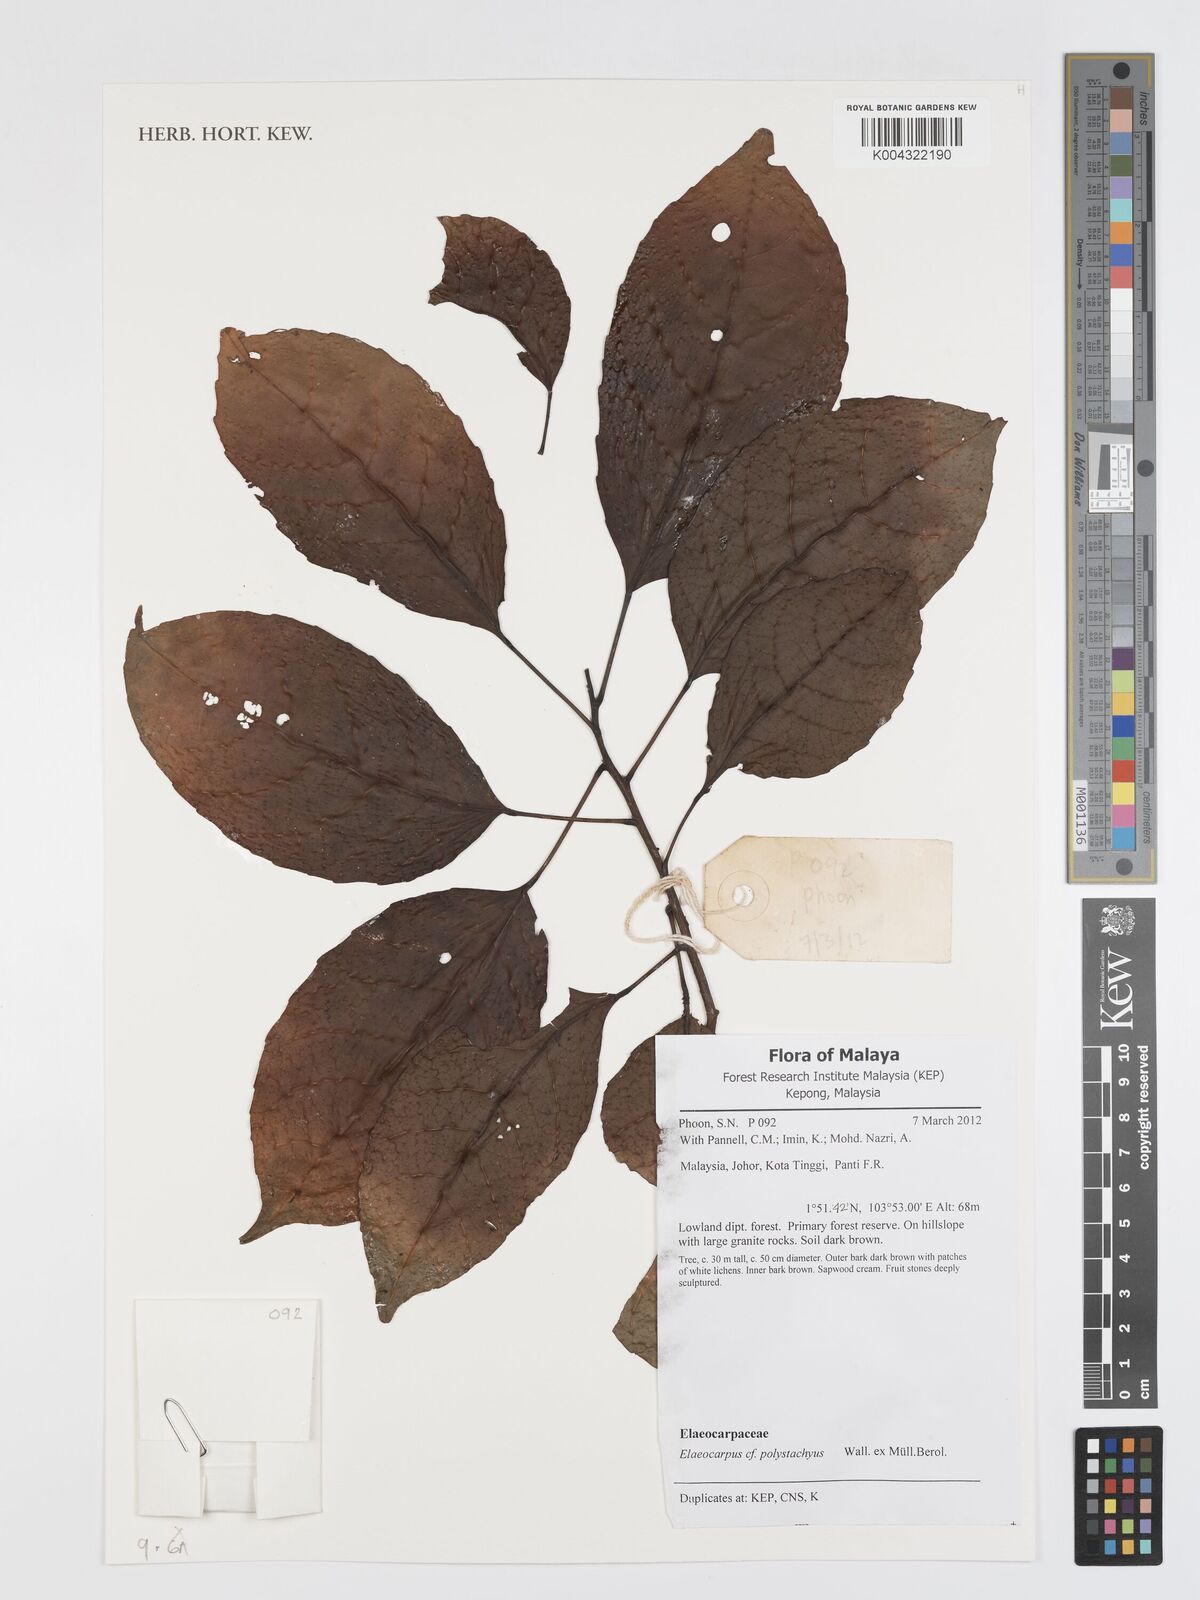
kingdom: Plantae
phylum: Tracheophyta
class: Magnoliopsida
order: Oxalidales
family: Elaeocarpaceae
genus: Elaeocarpus
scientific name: Elaeocarpus polystachyus
